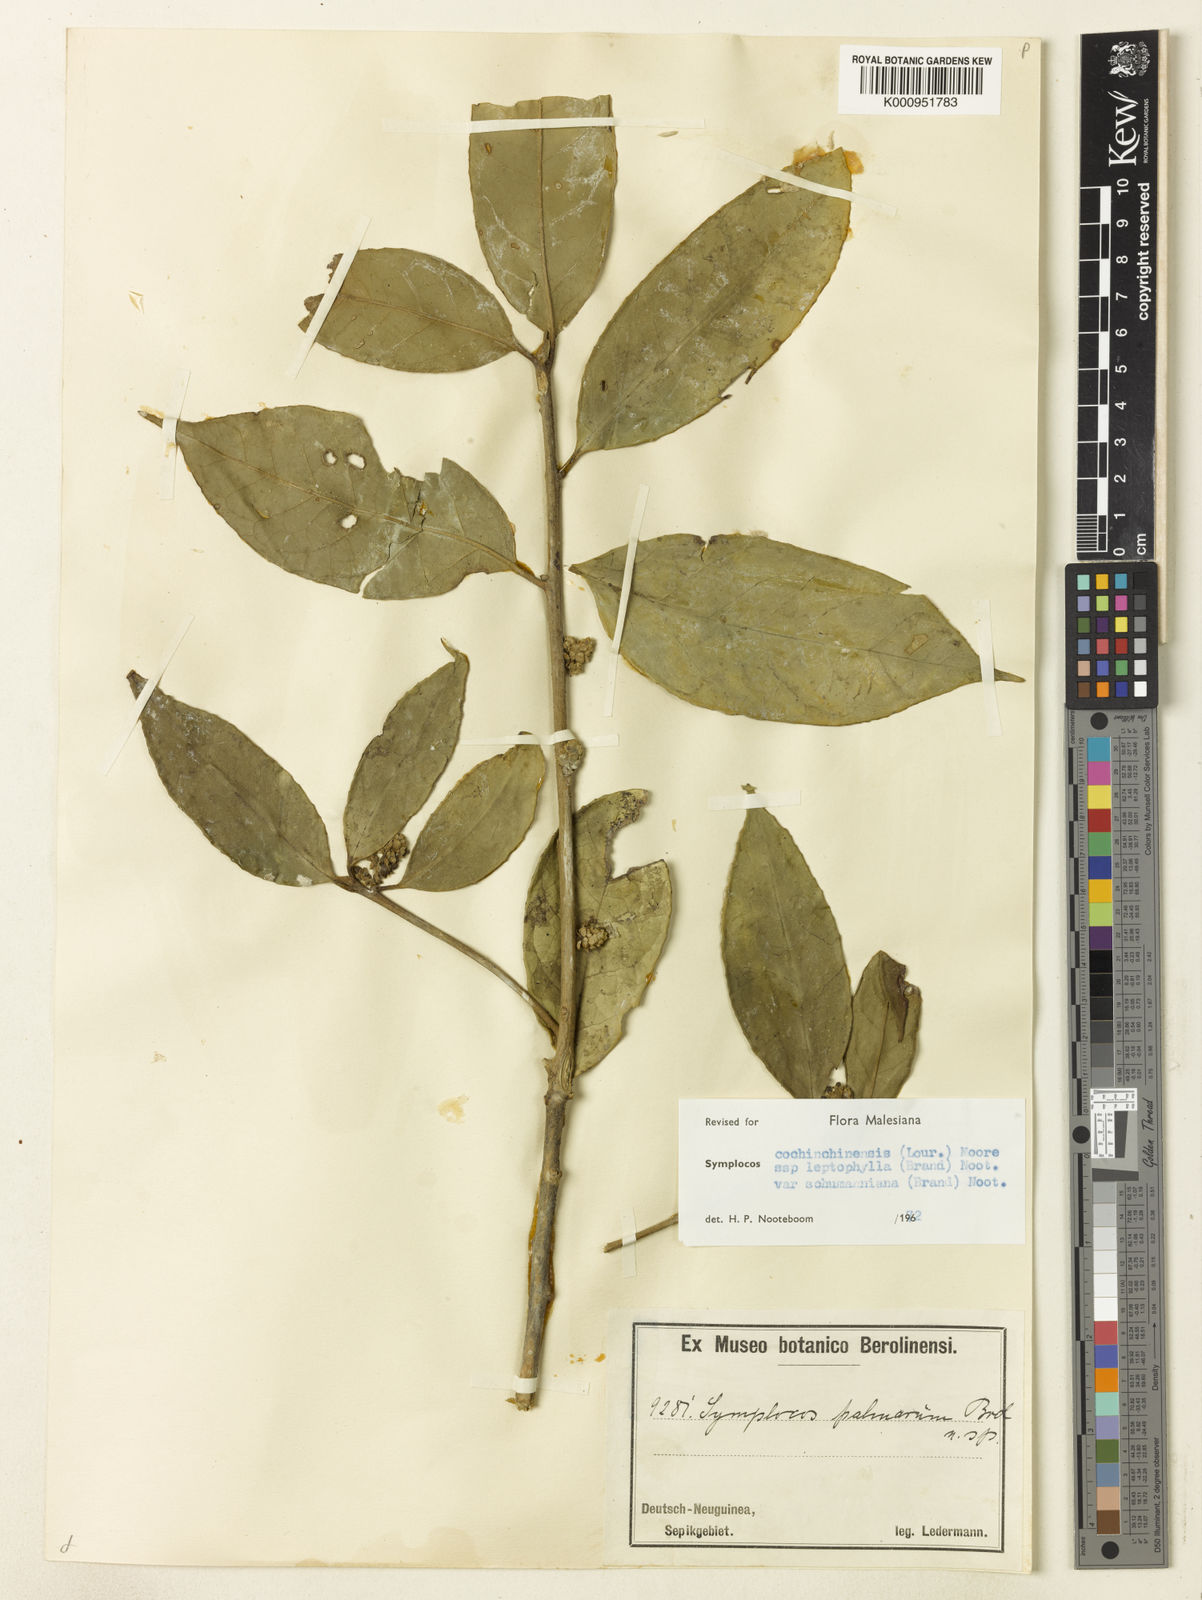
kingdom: Plantae
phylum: Tracheophyta
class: Magnoliopsida
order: Ericales
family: Symplocaceae
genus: Symplocos
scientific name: Symplocos cochinchinensis
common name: Buff hazelwood
